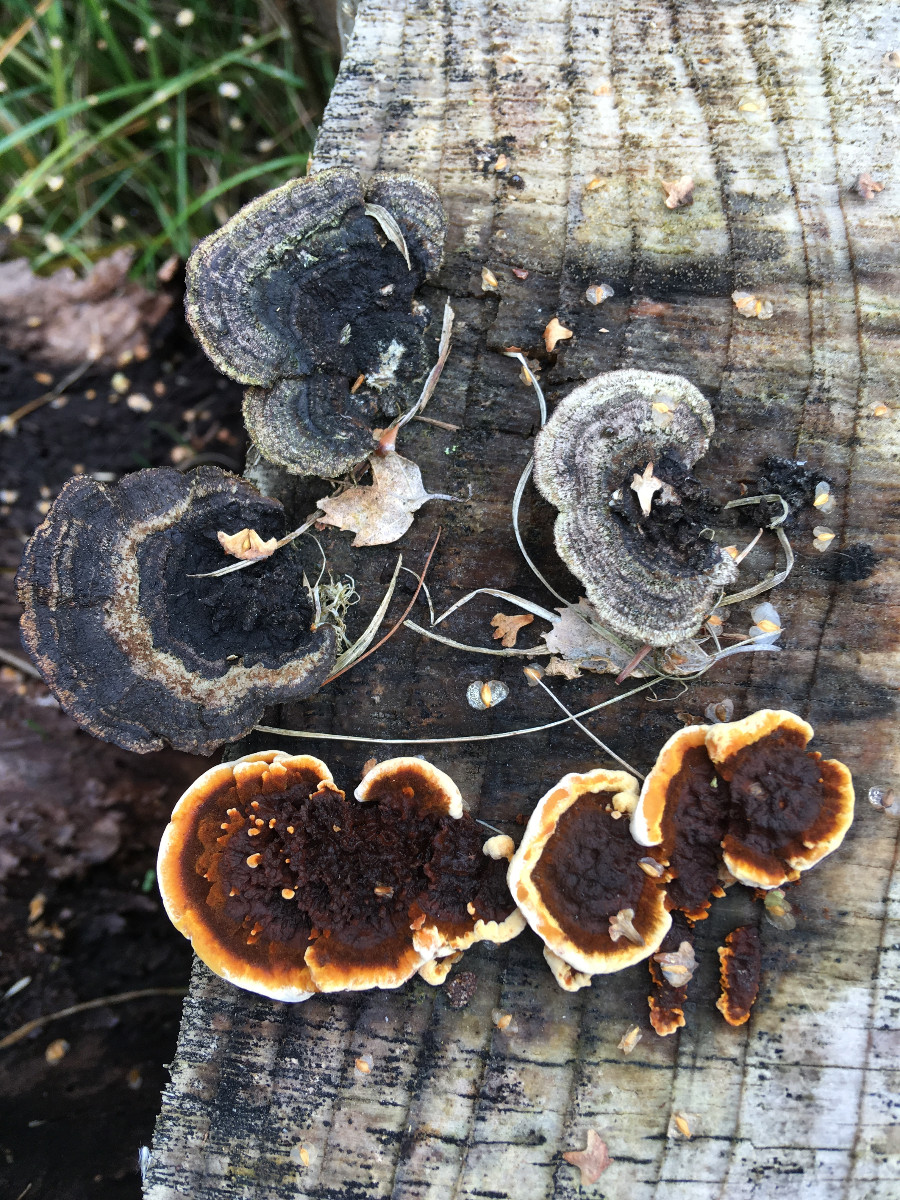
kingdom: Fungi
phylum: Basidiomycota
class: Agaricomycetes
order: Gloeophyllales
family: Gloeophyllaceae
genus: Gloeophyllum
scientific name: Gloeophyllum sepiarium
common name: fyrre-korkhat
